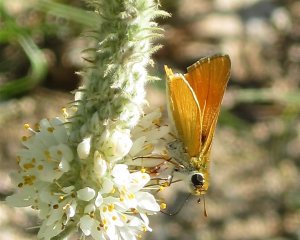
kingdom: Animalia
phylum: Arthropoda
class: Insecta
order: Lepidoptera
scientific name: Lepidoptera
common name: Butterflies
